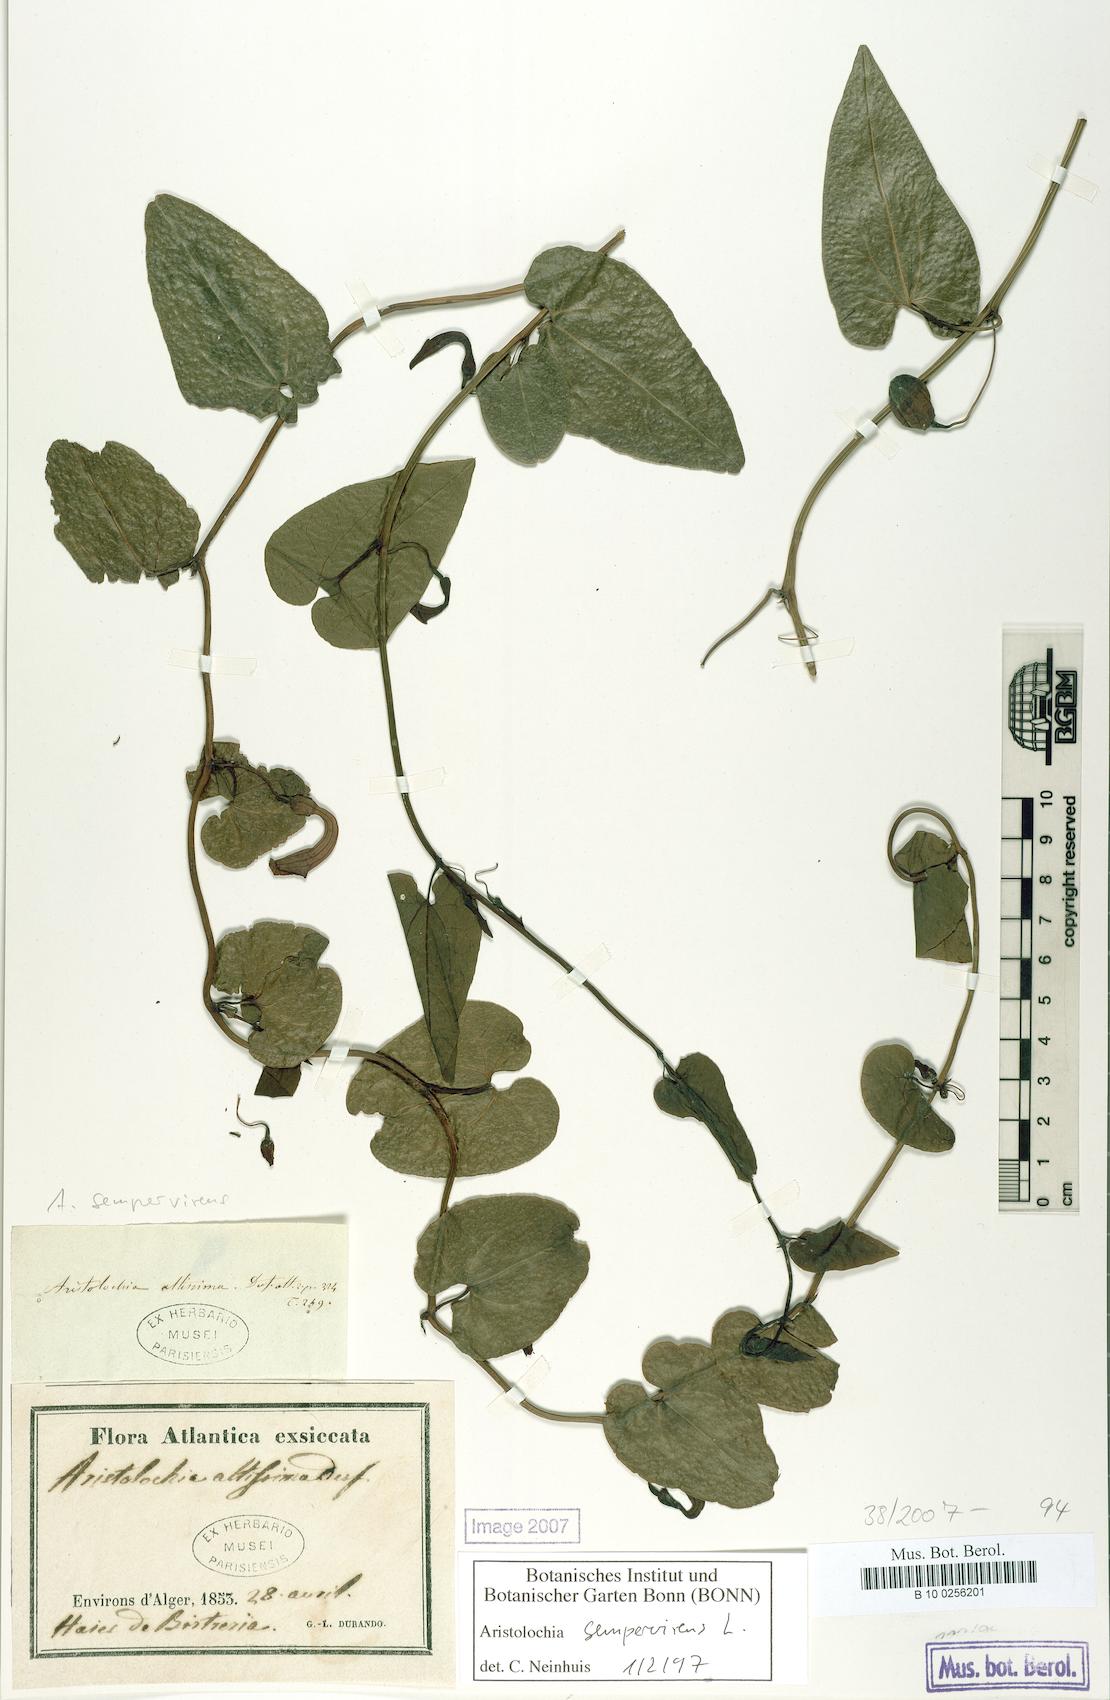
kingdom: Plantae
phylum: Tracheophyta
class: Magnoliopsida
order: Piperales
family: Aristolochiaceae
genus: Aristolochia
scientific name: Aristolochia sempervirens
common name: Long birthwort
